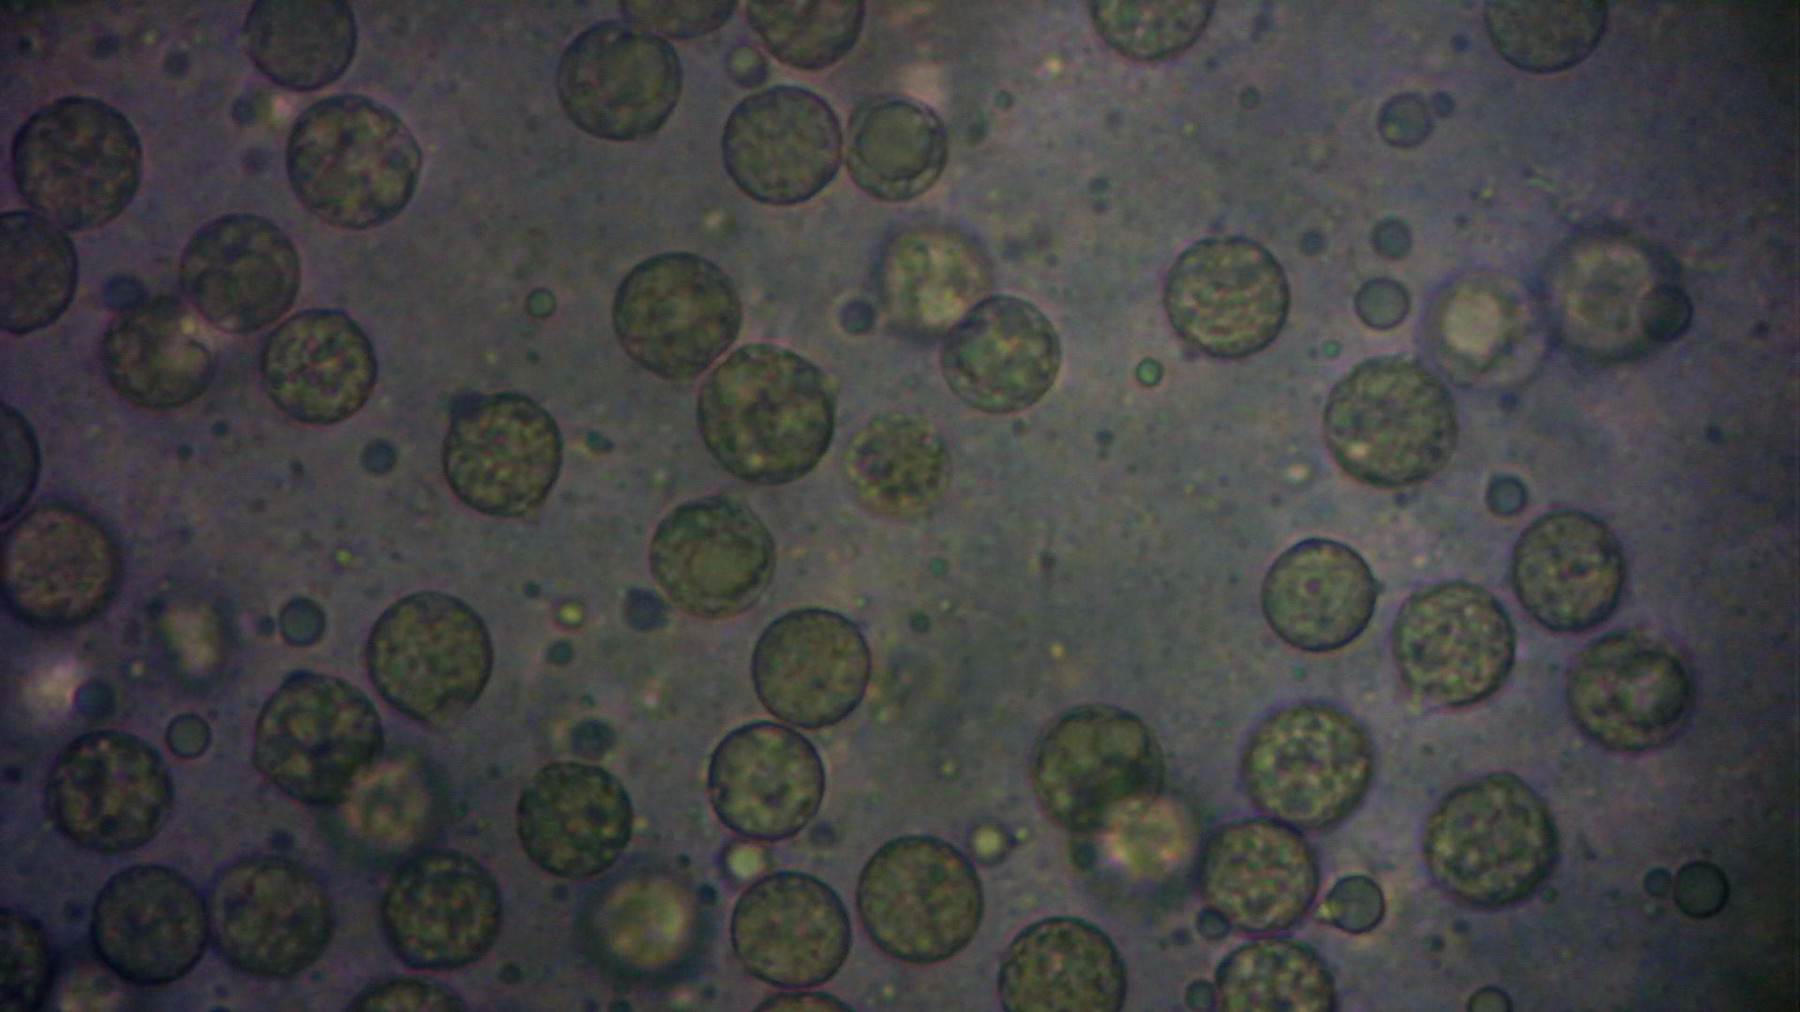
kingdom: Fungi
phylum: Basidiomycota
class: Agaricomycetes
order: Agaricales
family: Amanitaceae
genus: Amanita
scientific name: Amanita fulva
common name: brun kam-fluesvamp
